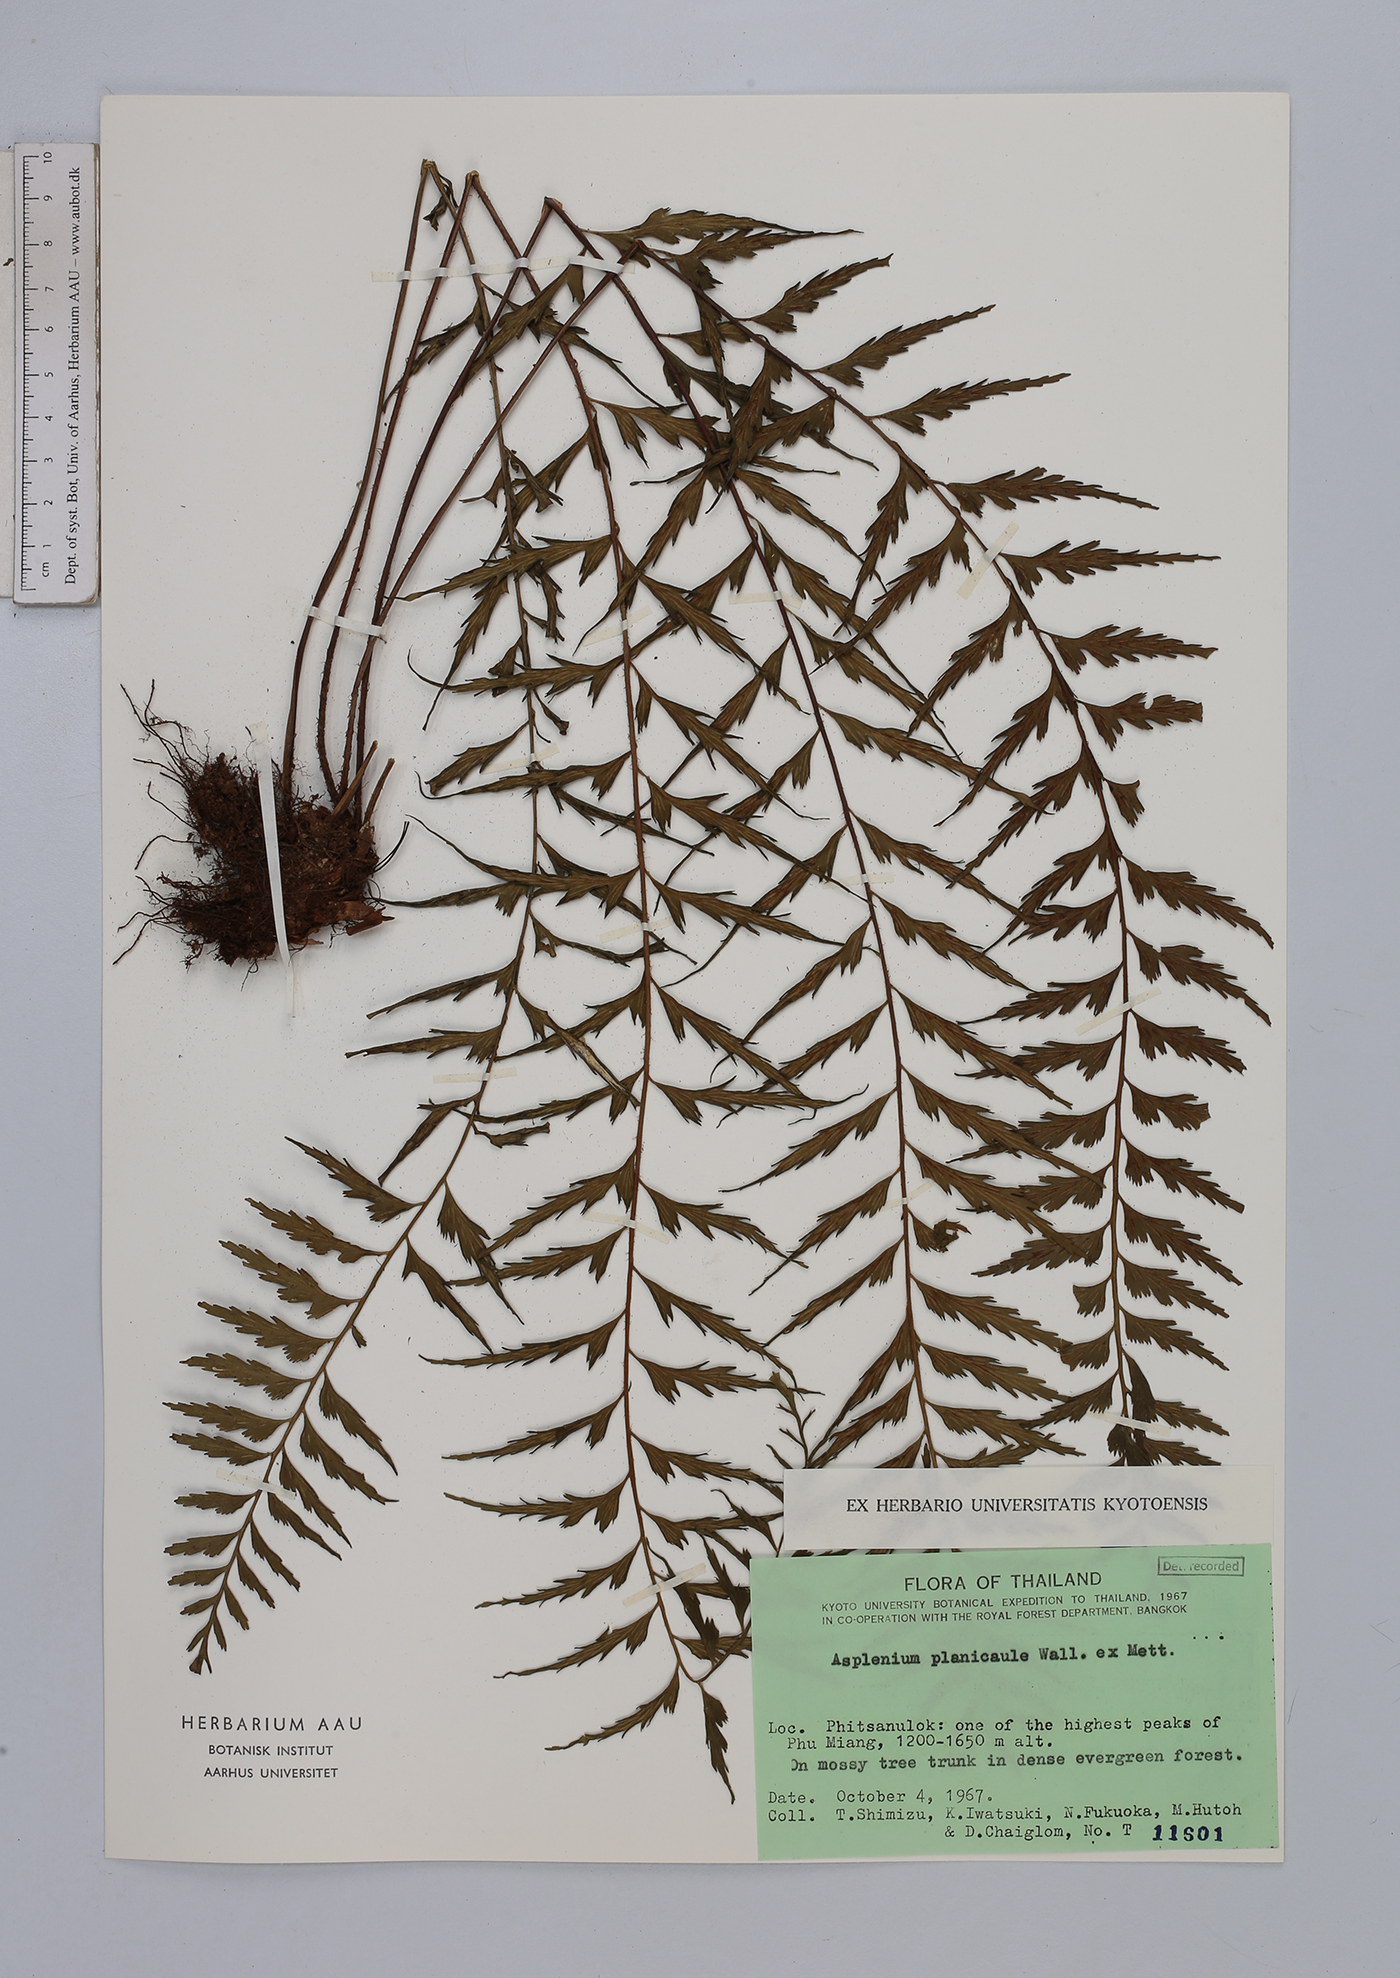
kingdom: Plantae
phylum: Tracheophyta
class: Polypodiopsida
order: Polypodiales
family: Aspleniaceae
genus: Asplenium
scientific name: Asplenium lividum
